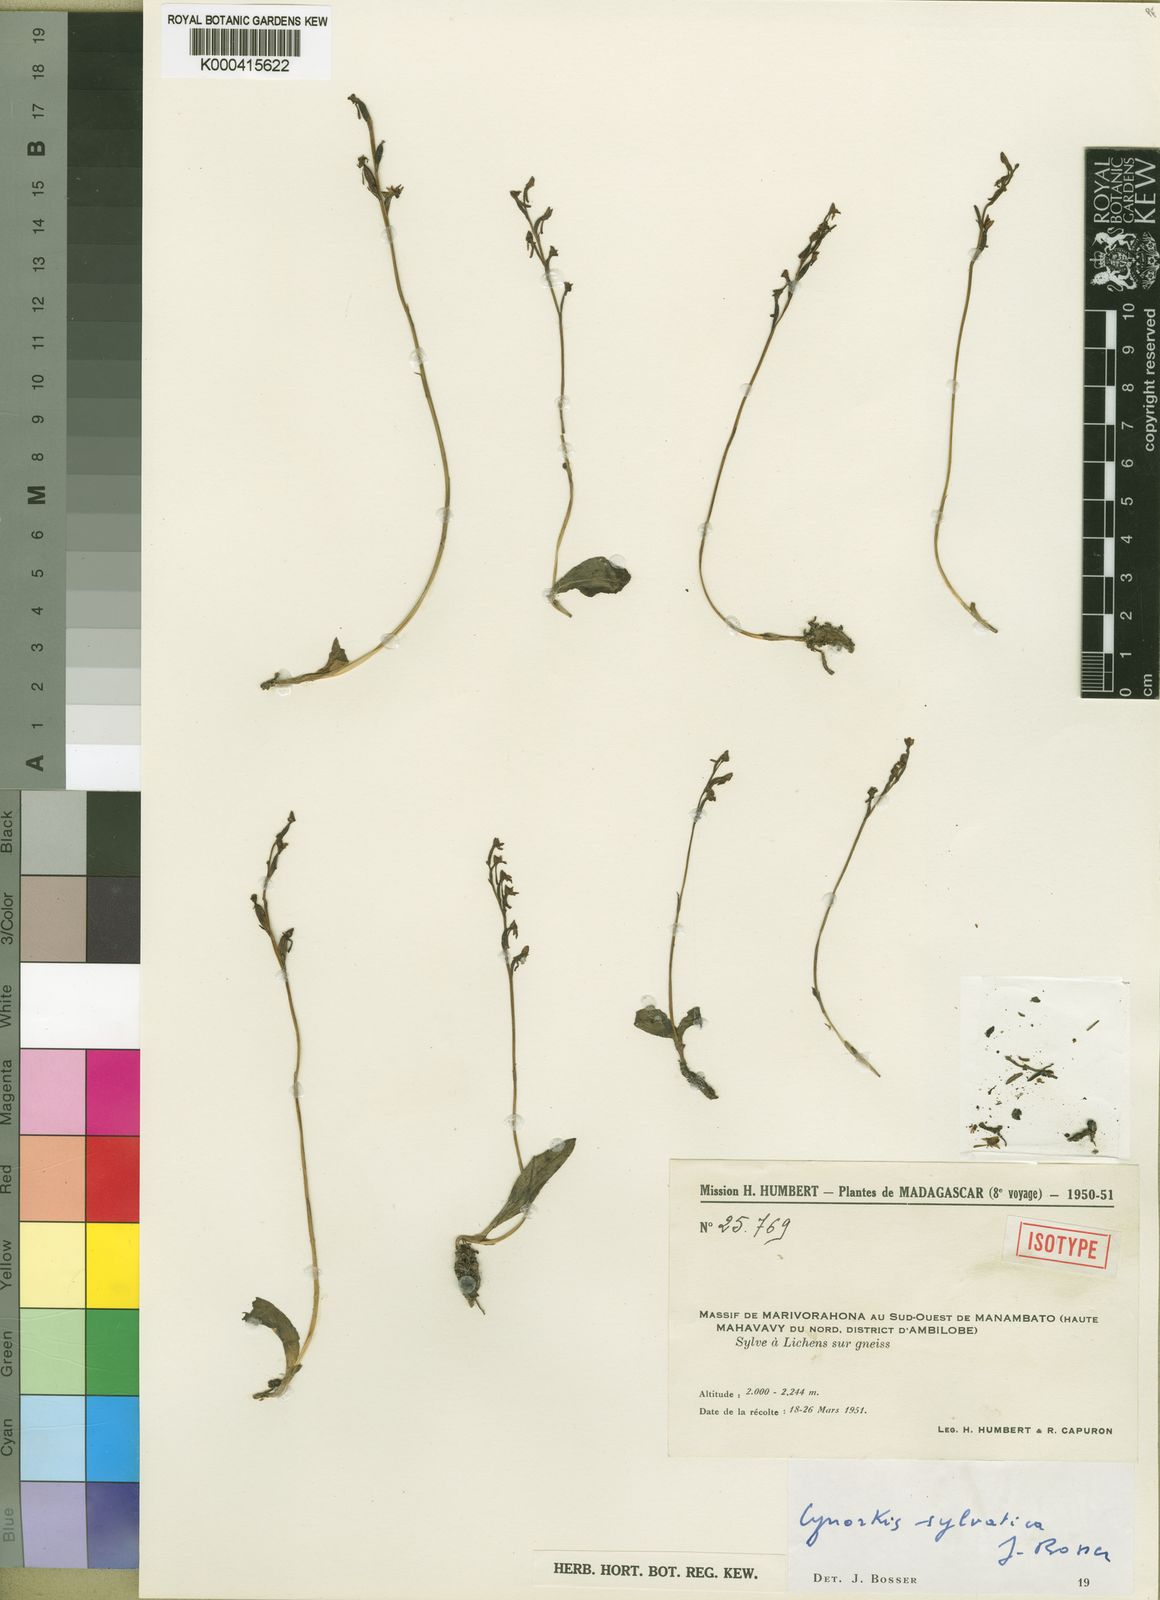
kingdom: Plantae
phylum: Tracheophyta
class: Liliopsida
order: Asparagales
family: Orchidaceae
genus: Cynorkis
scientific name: Cynorkis sylvatica
